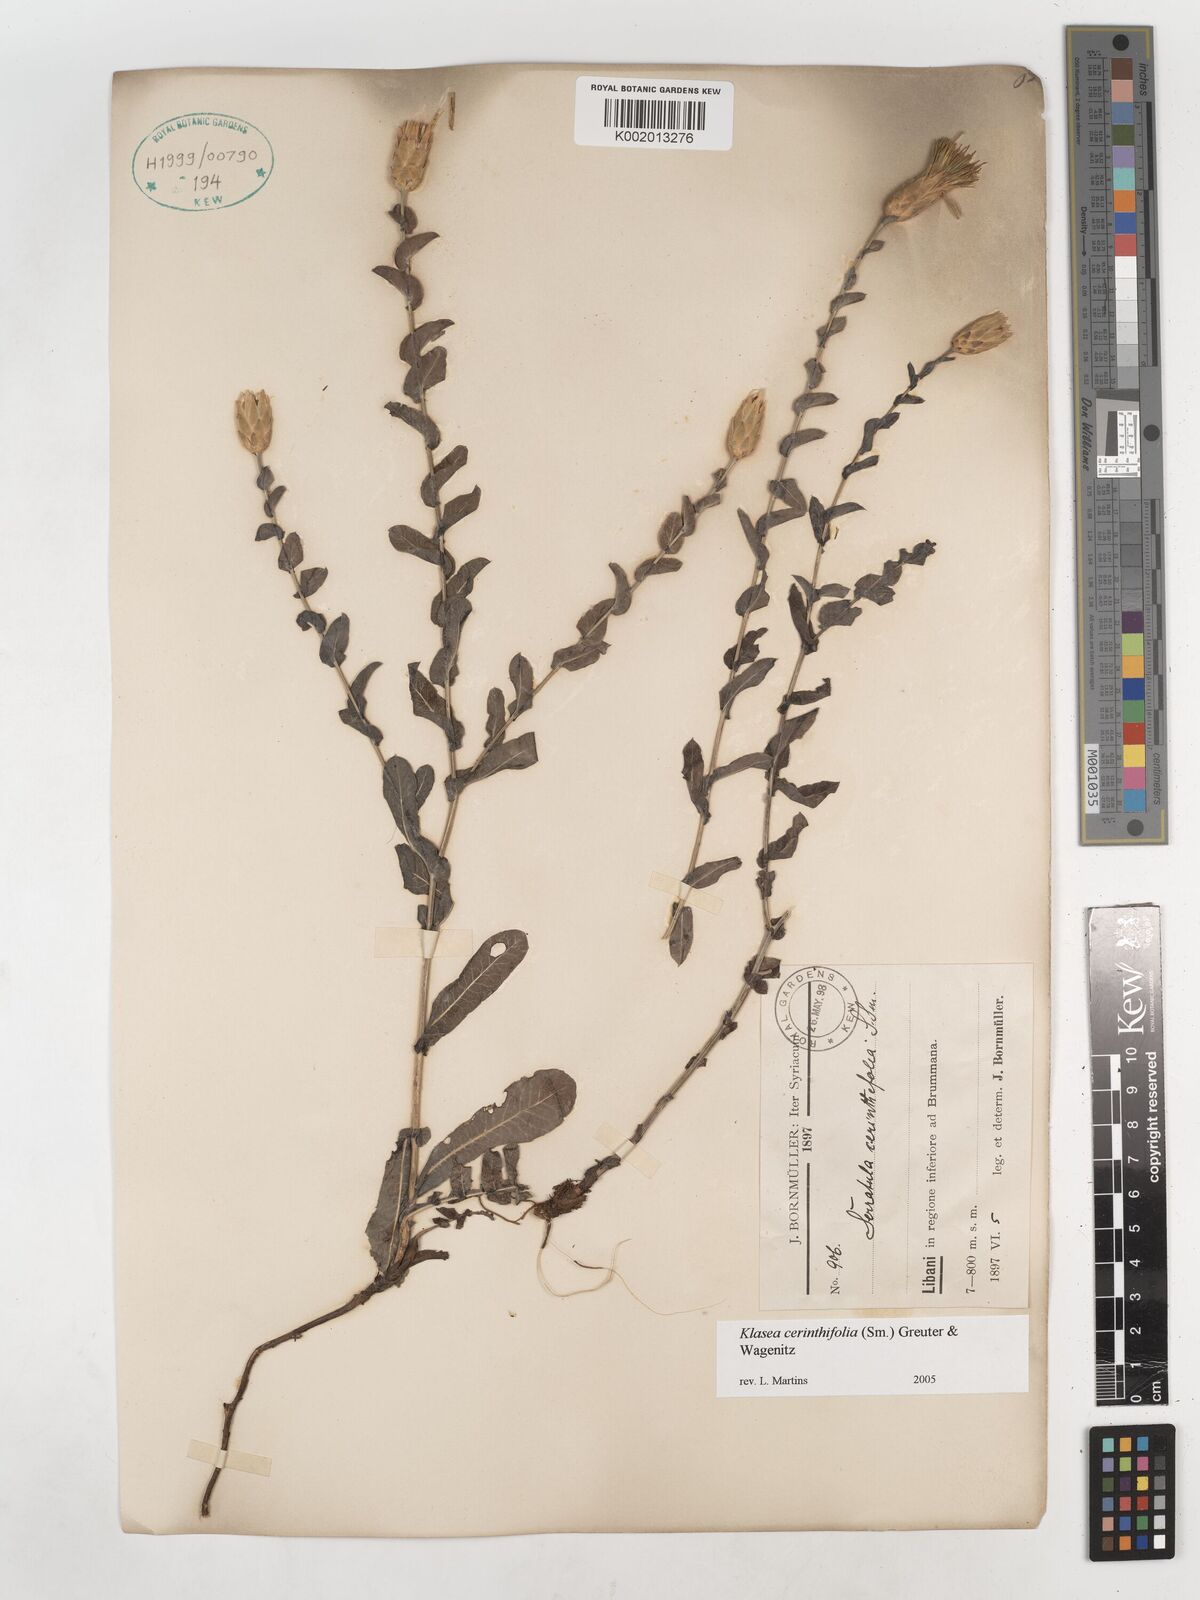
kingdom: Plantae
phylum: Tracheophyta
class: Magnoliopsida
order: Asterales
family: Asteraceae
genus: Klasea
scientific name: Klasea cerinthifolia
